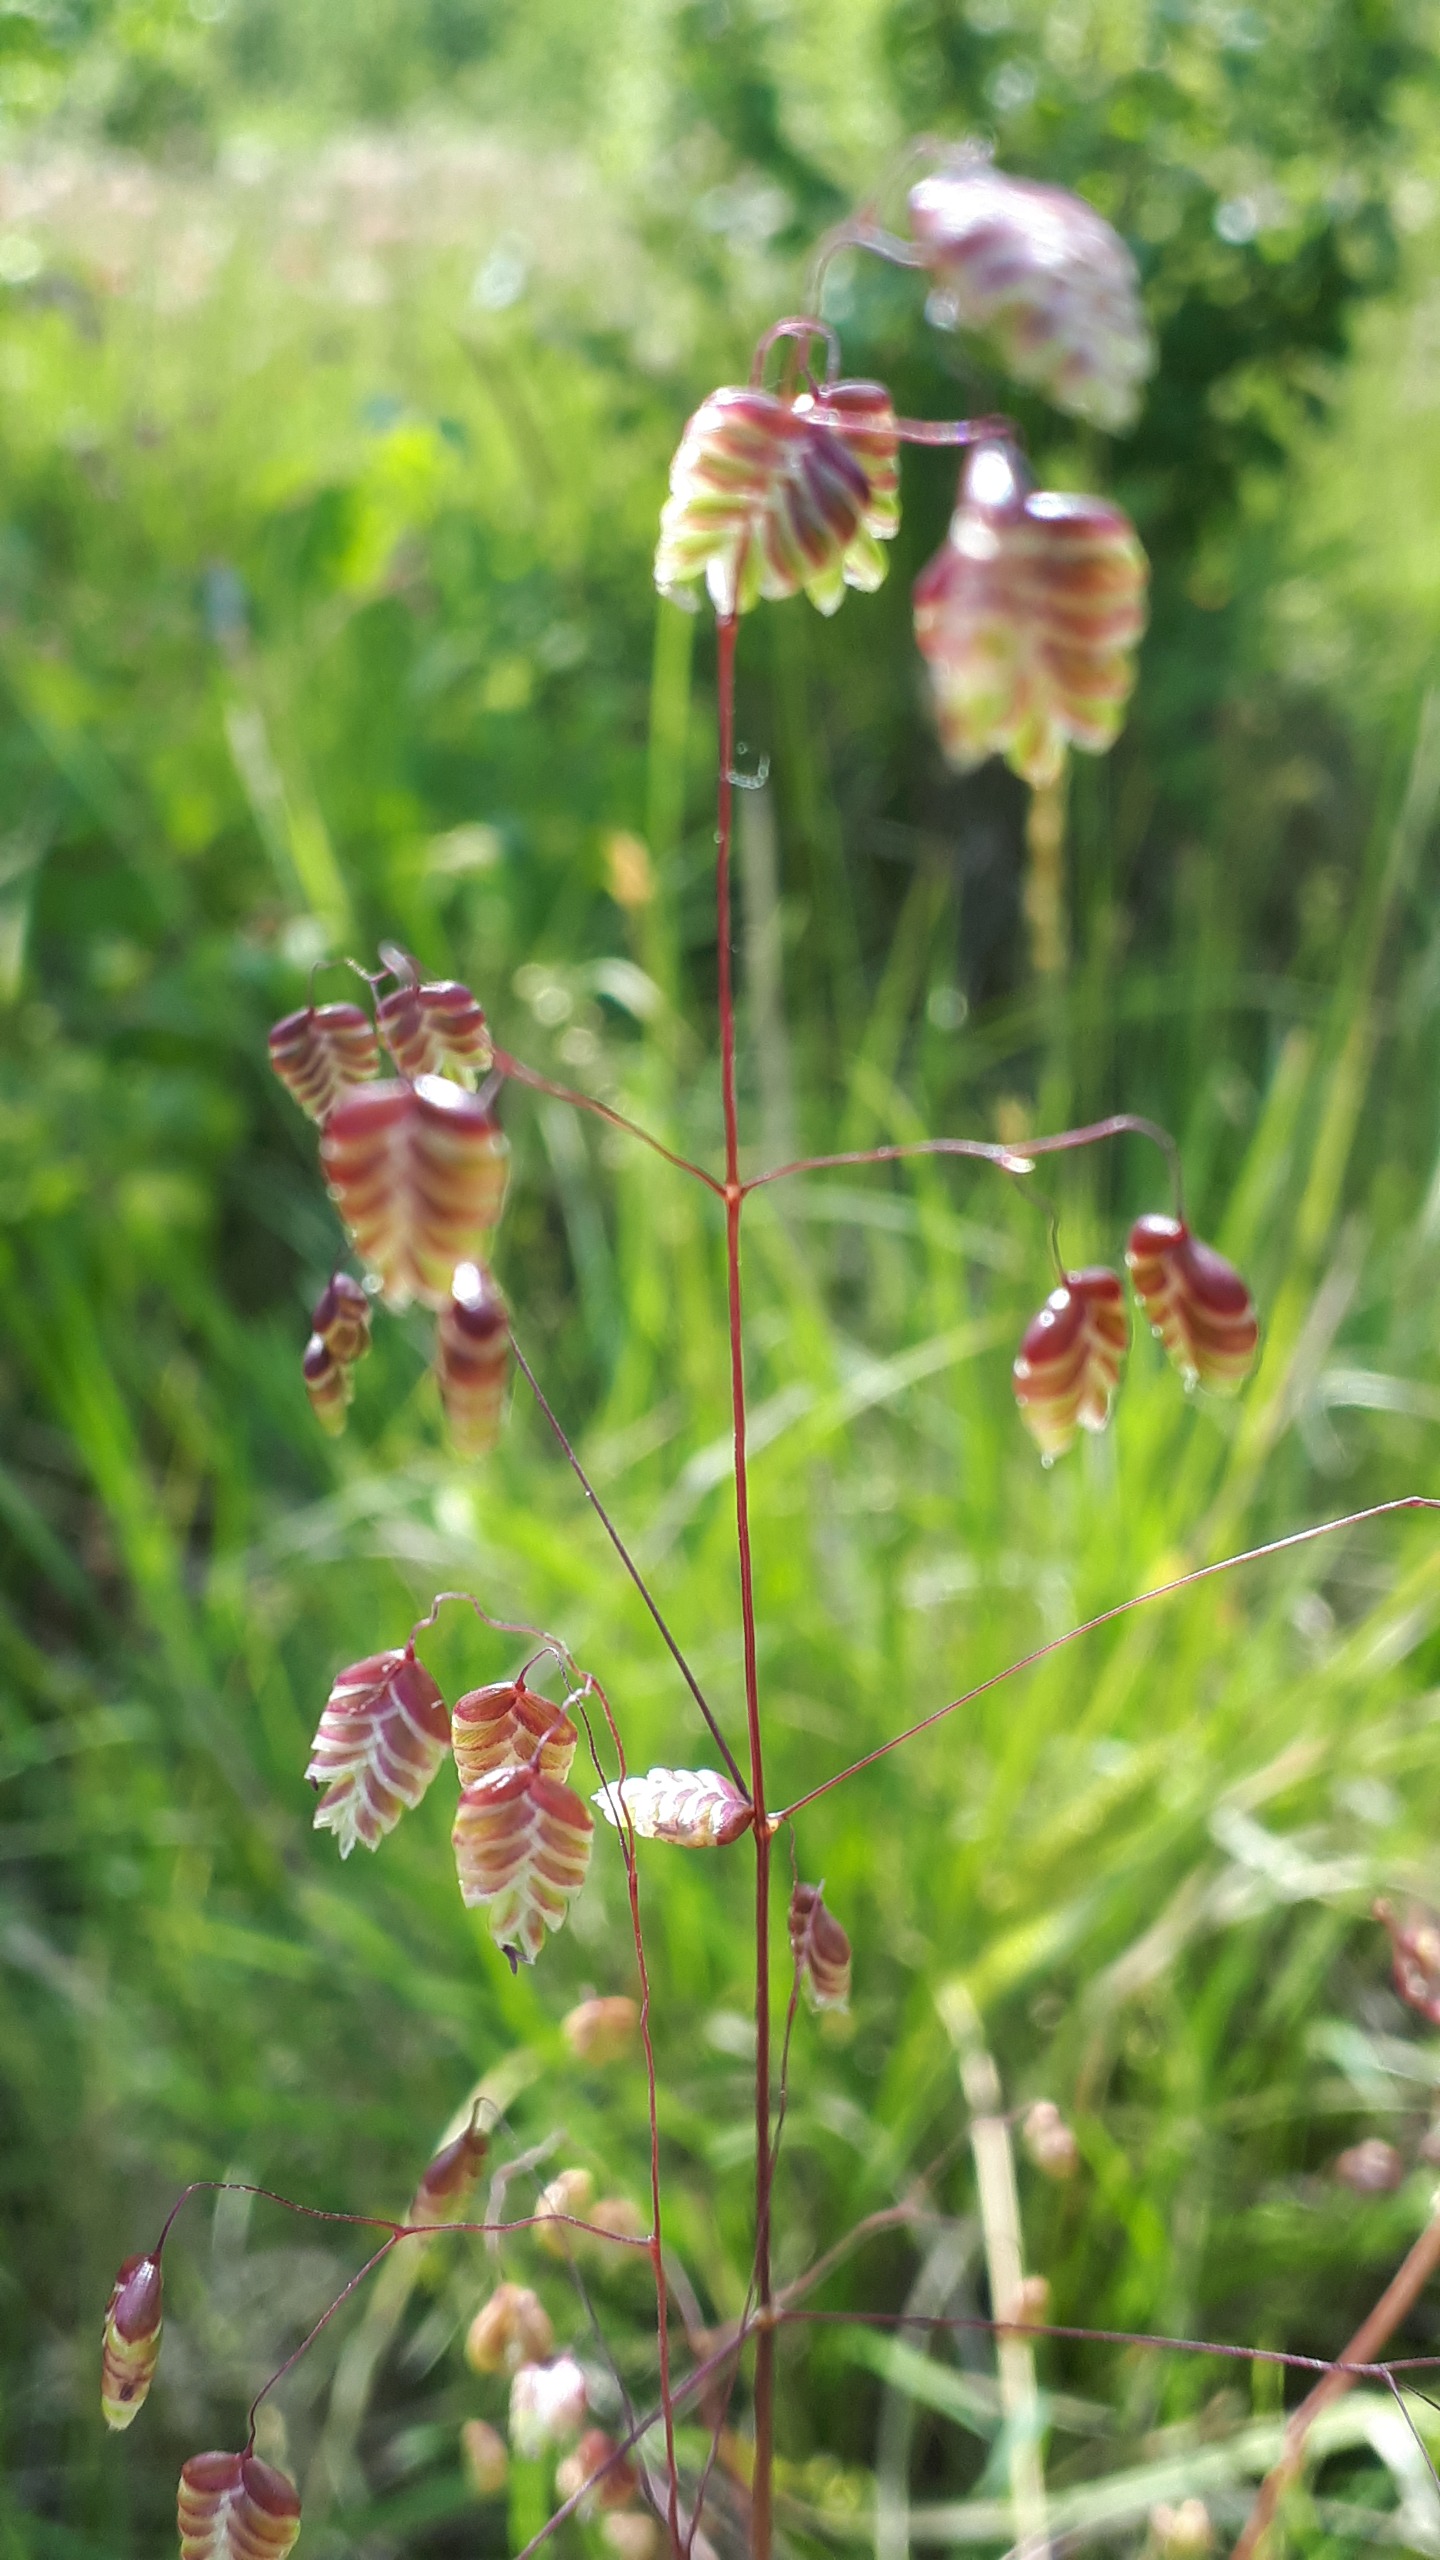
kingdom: Plantae
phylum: Tracheophyta
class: Liliopsida
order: Poales
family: Poaceae
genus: Briza
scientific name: Briza media
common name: Hjertegræs
